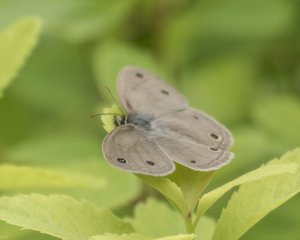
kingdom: Animalia
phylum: Arthropoda
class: Insecta
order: Lepidoptera
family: Nymphalidae
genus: Euptychia
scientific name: Euptychia cymela
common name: Little Wood Satyr
